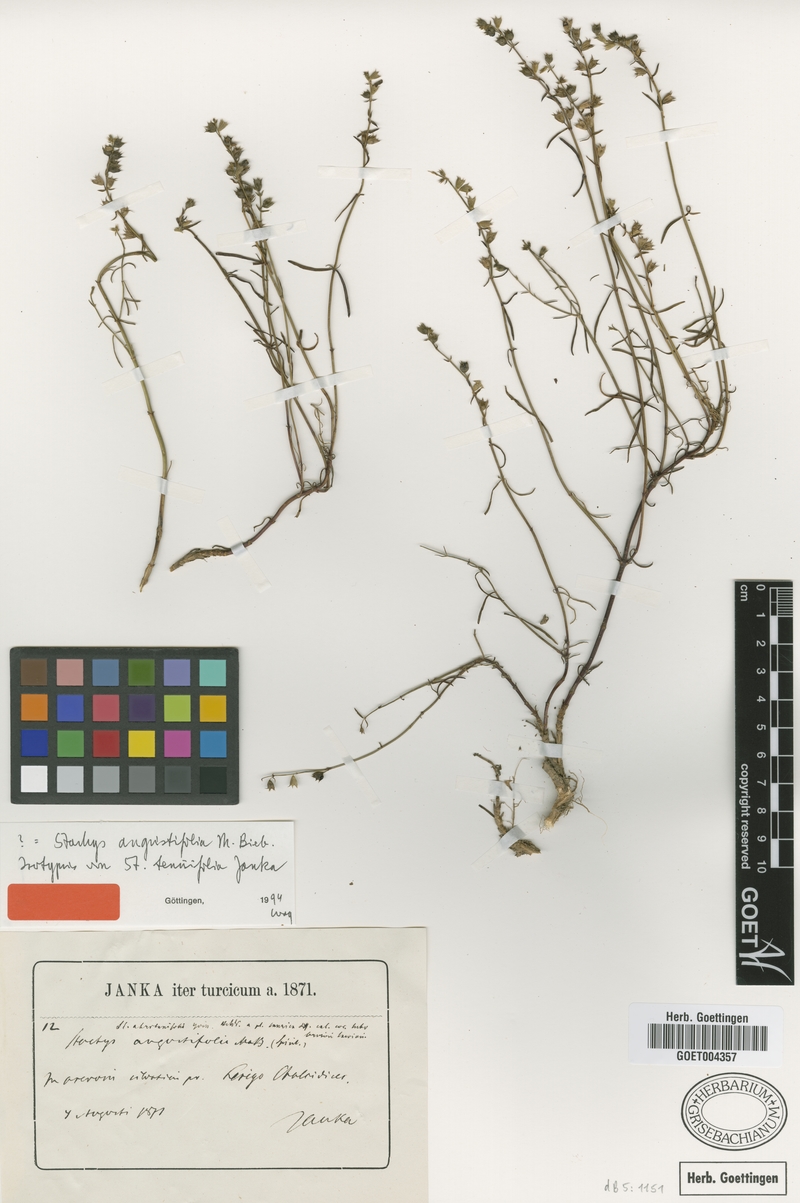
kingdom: Plantae
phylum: Tracheophyta
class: Magnoliopsida
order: Lamiales
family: Lamiaceae
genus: Stachys
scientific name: Stachys angustifolia
